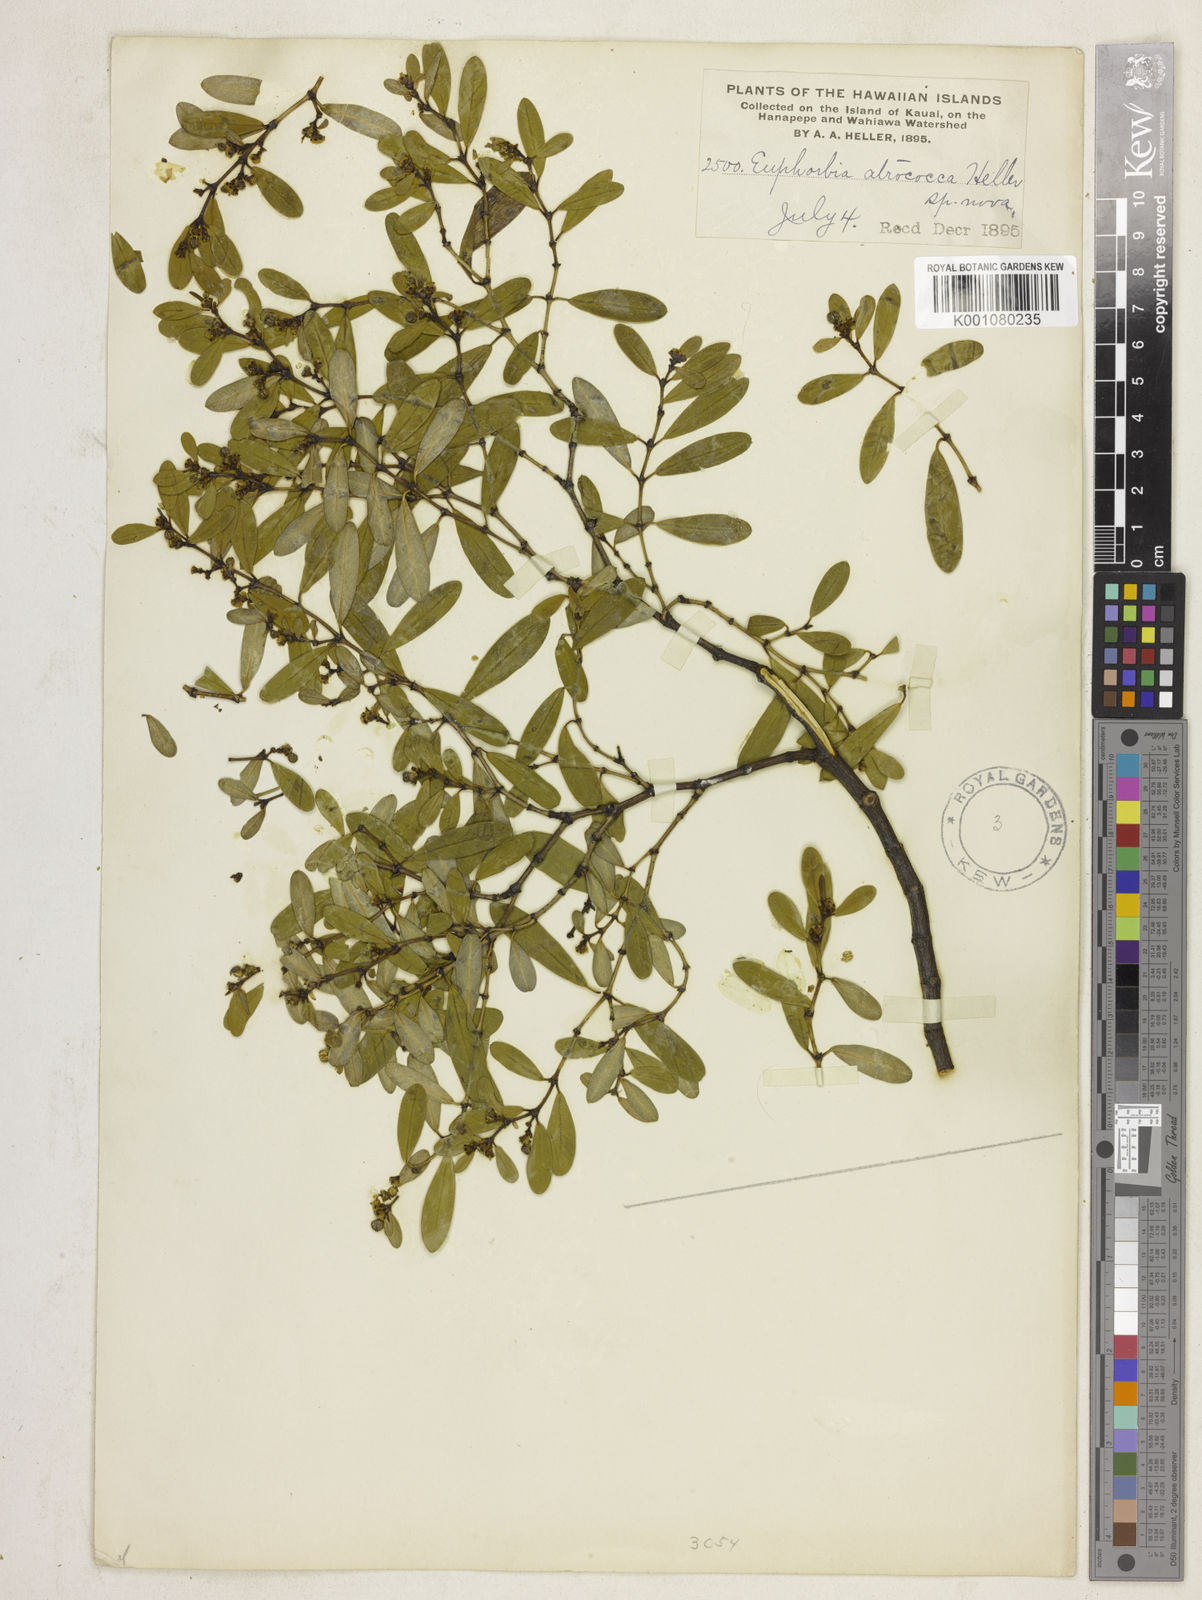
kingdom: Plantae
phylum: Tracheophyta
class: Magnoliopsida
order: Malpighiales
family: Euphorbiaceae
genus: Euphorbia
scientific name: Euphorbia atrococca
